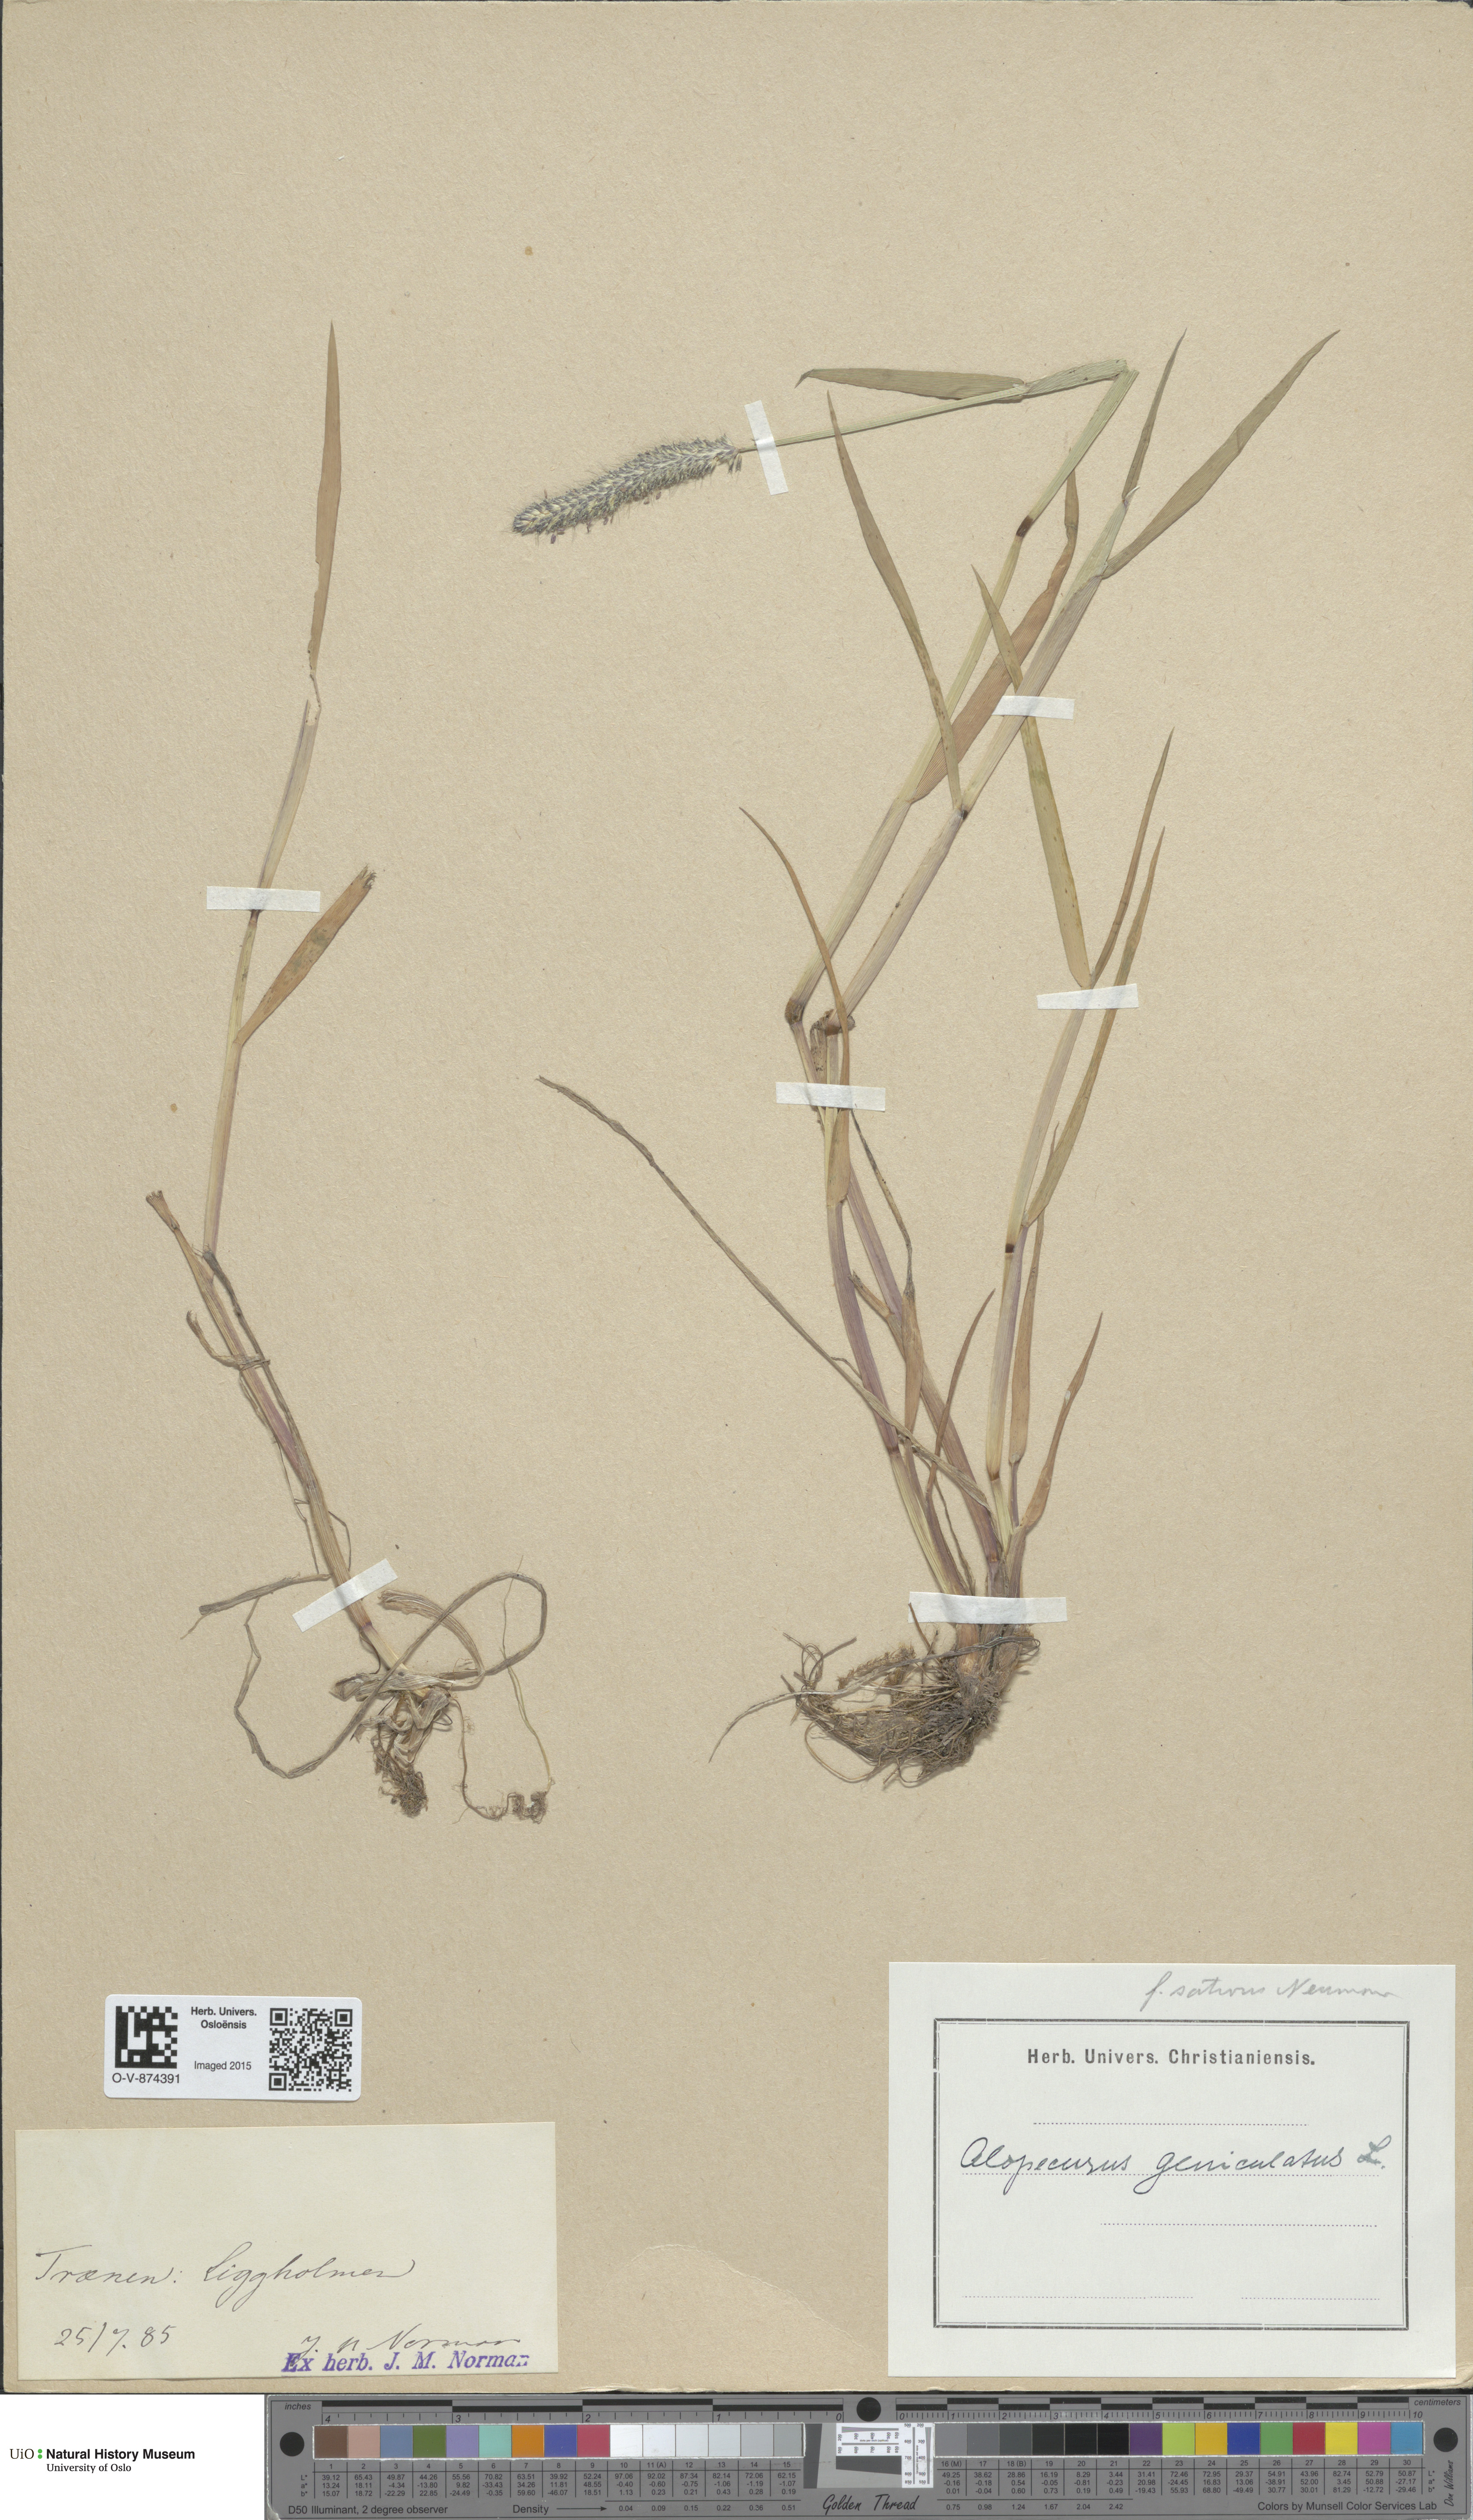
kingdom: Plantae
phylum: Tracheophyta
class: Liliopsida
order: Poales
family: Poaceae
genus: Alopecurus
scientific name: Alopecurus geniculatus
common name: Water foxtail
